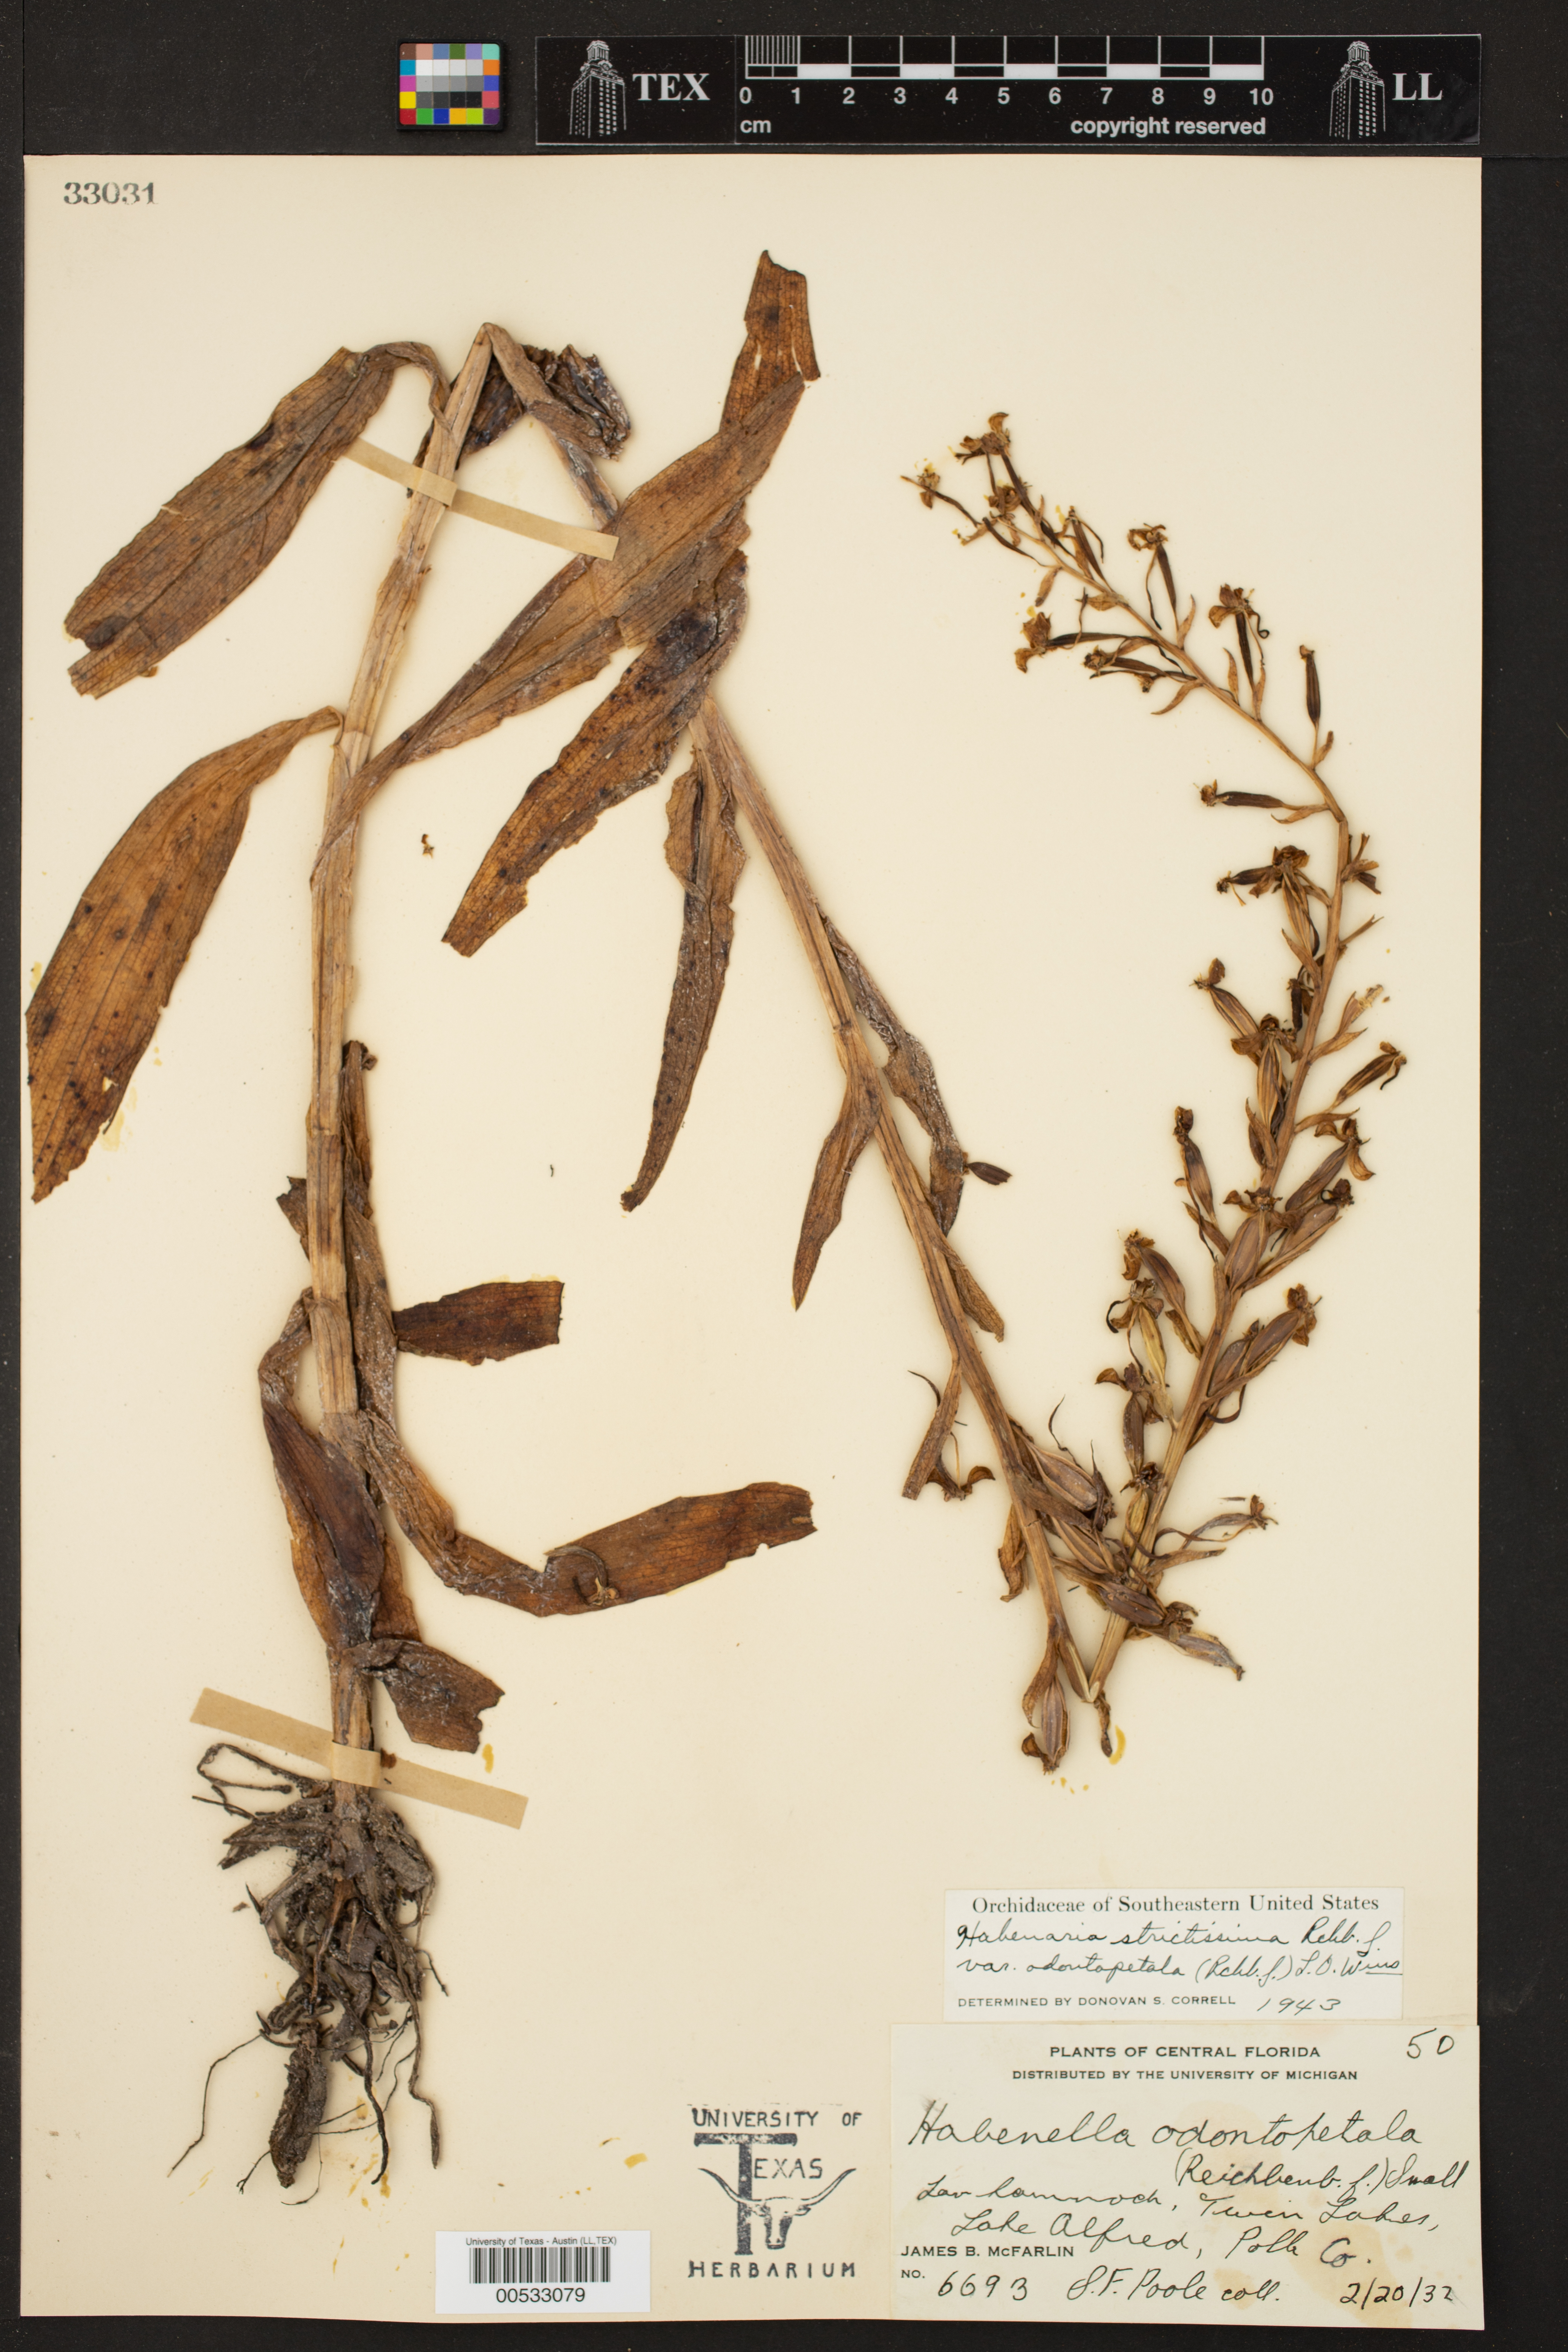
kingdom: Plantae
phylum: Tracheophyta
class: Liliopsida
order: Asparagales
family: Orchidaceae
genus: Habenaria
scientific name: Habenaria strictissima
